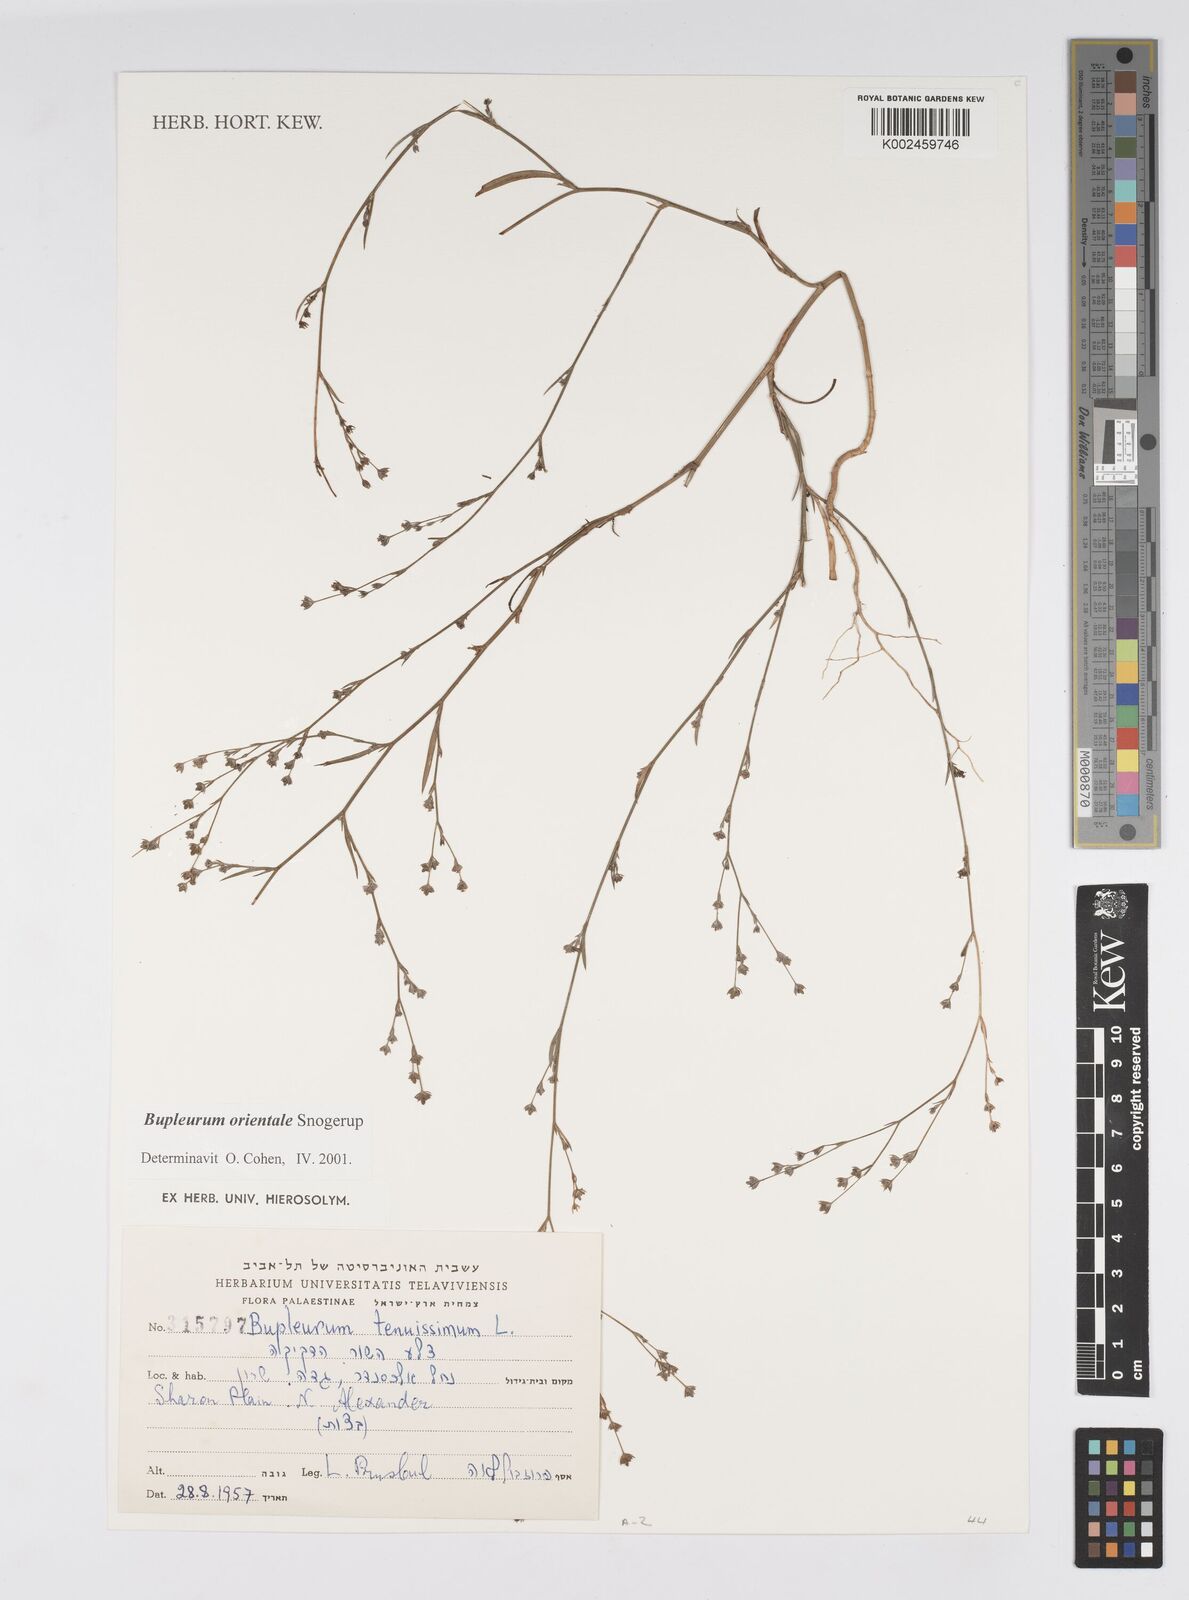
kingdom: Plantae
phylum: Tracheophyta
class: Magnoliopsida
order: Apiales
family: Apiaceae
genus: Bupleurum
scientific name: Bupleurum orientale
